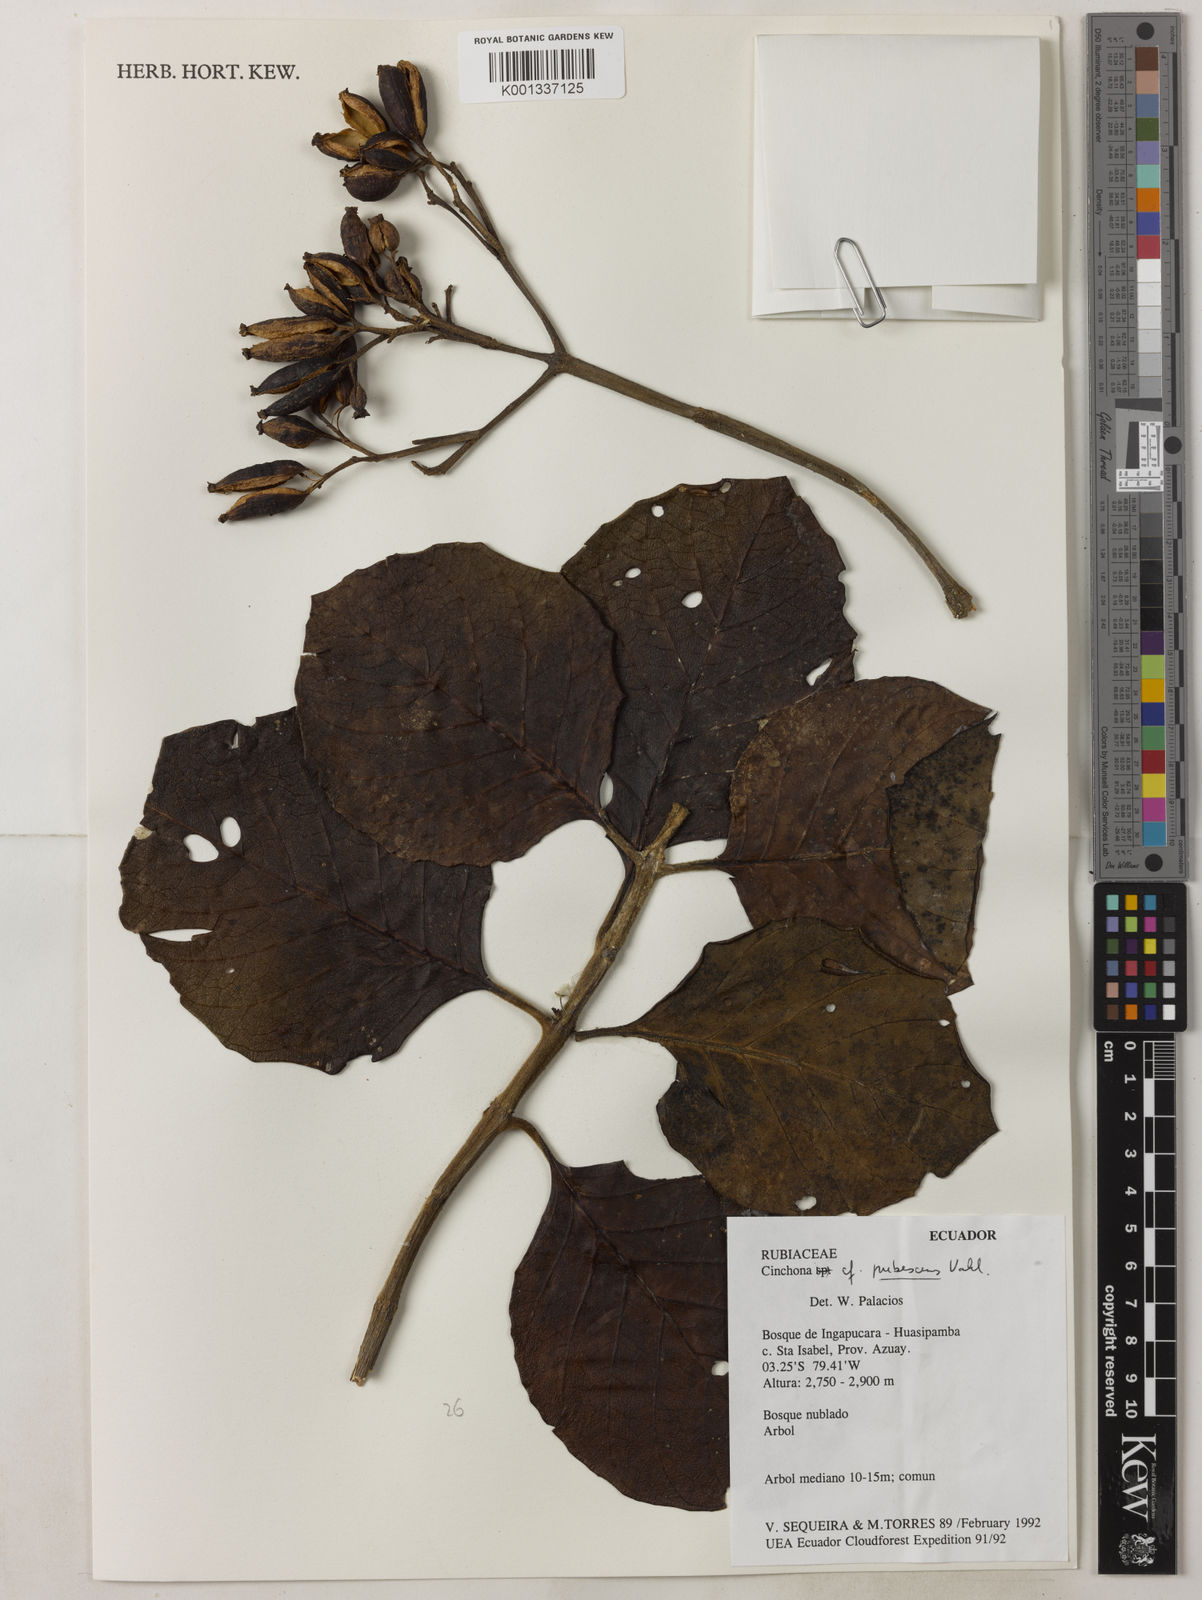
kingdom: Plantae
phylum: Tracheophyta
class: Magnoliopsida
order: Gentianales
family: Rubiaceae
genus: Cinchona
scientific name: Cinchona pubescens
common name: Quinine
